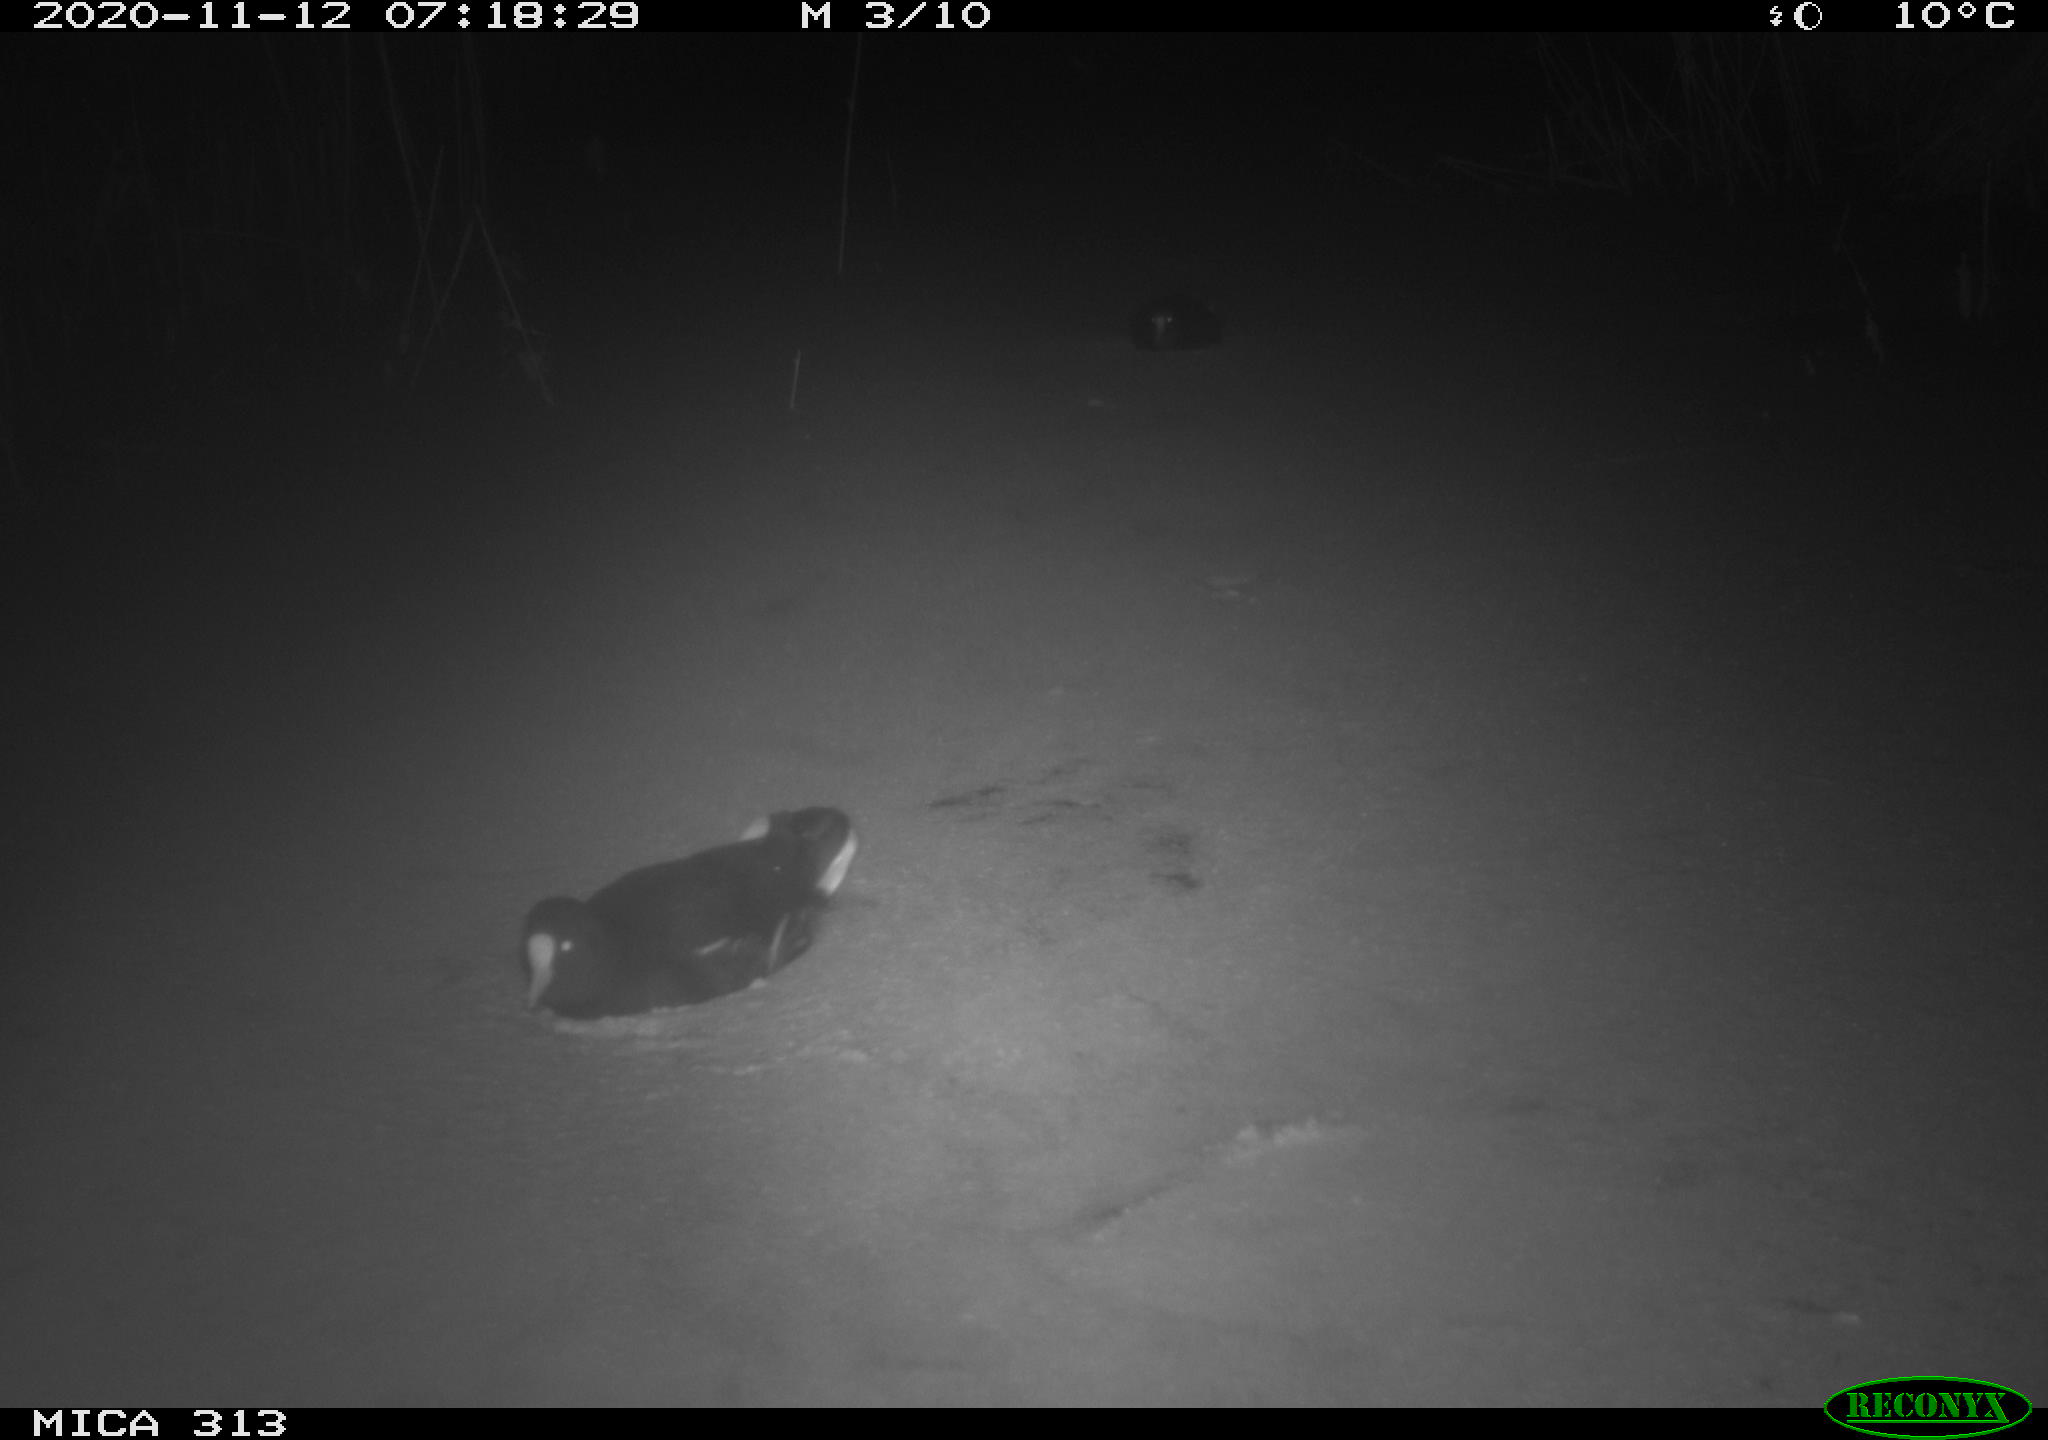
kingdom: Animalia
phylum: Chordata
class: Aves
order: Gruiformes
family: Rallidae
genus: Gallinula
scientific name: Gallinula chloropus
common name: Common moorhen
